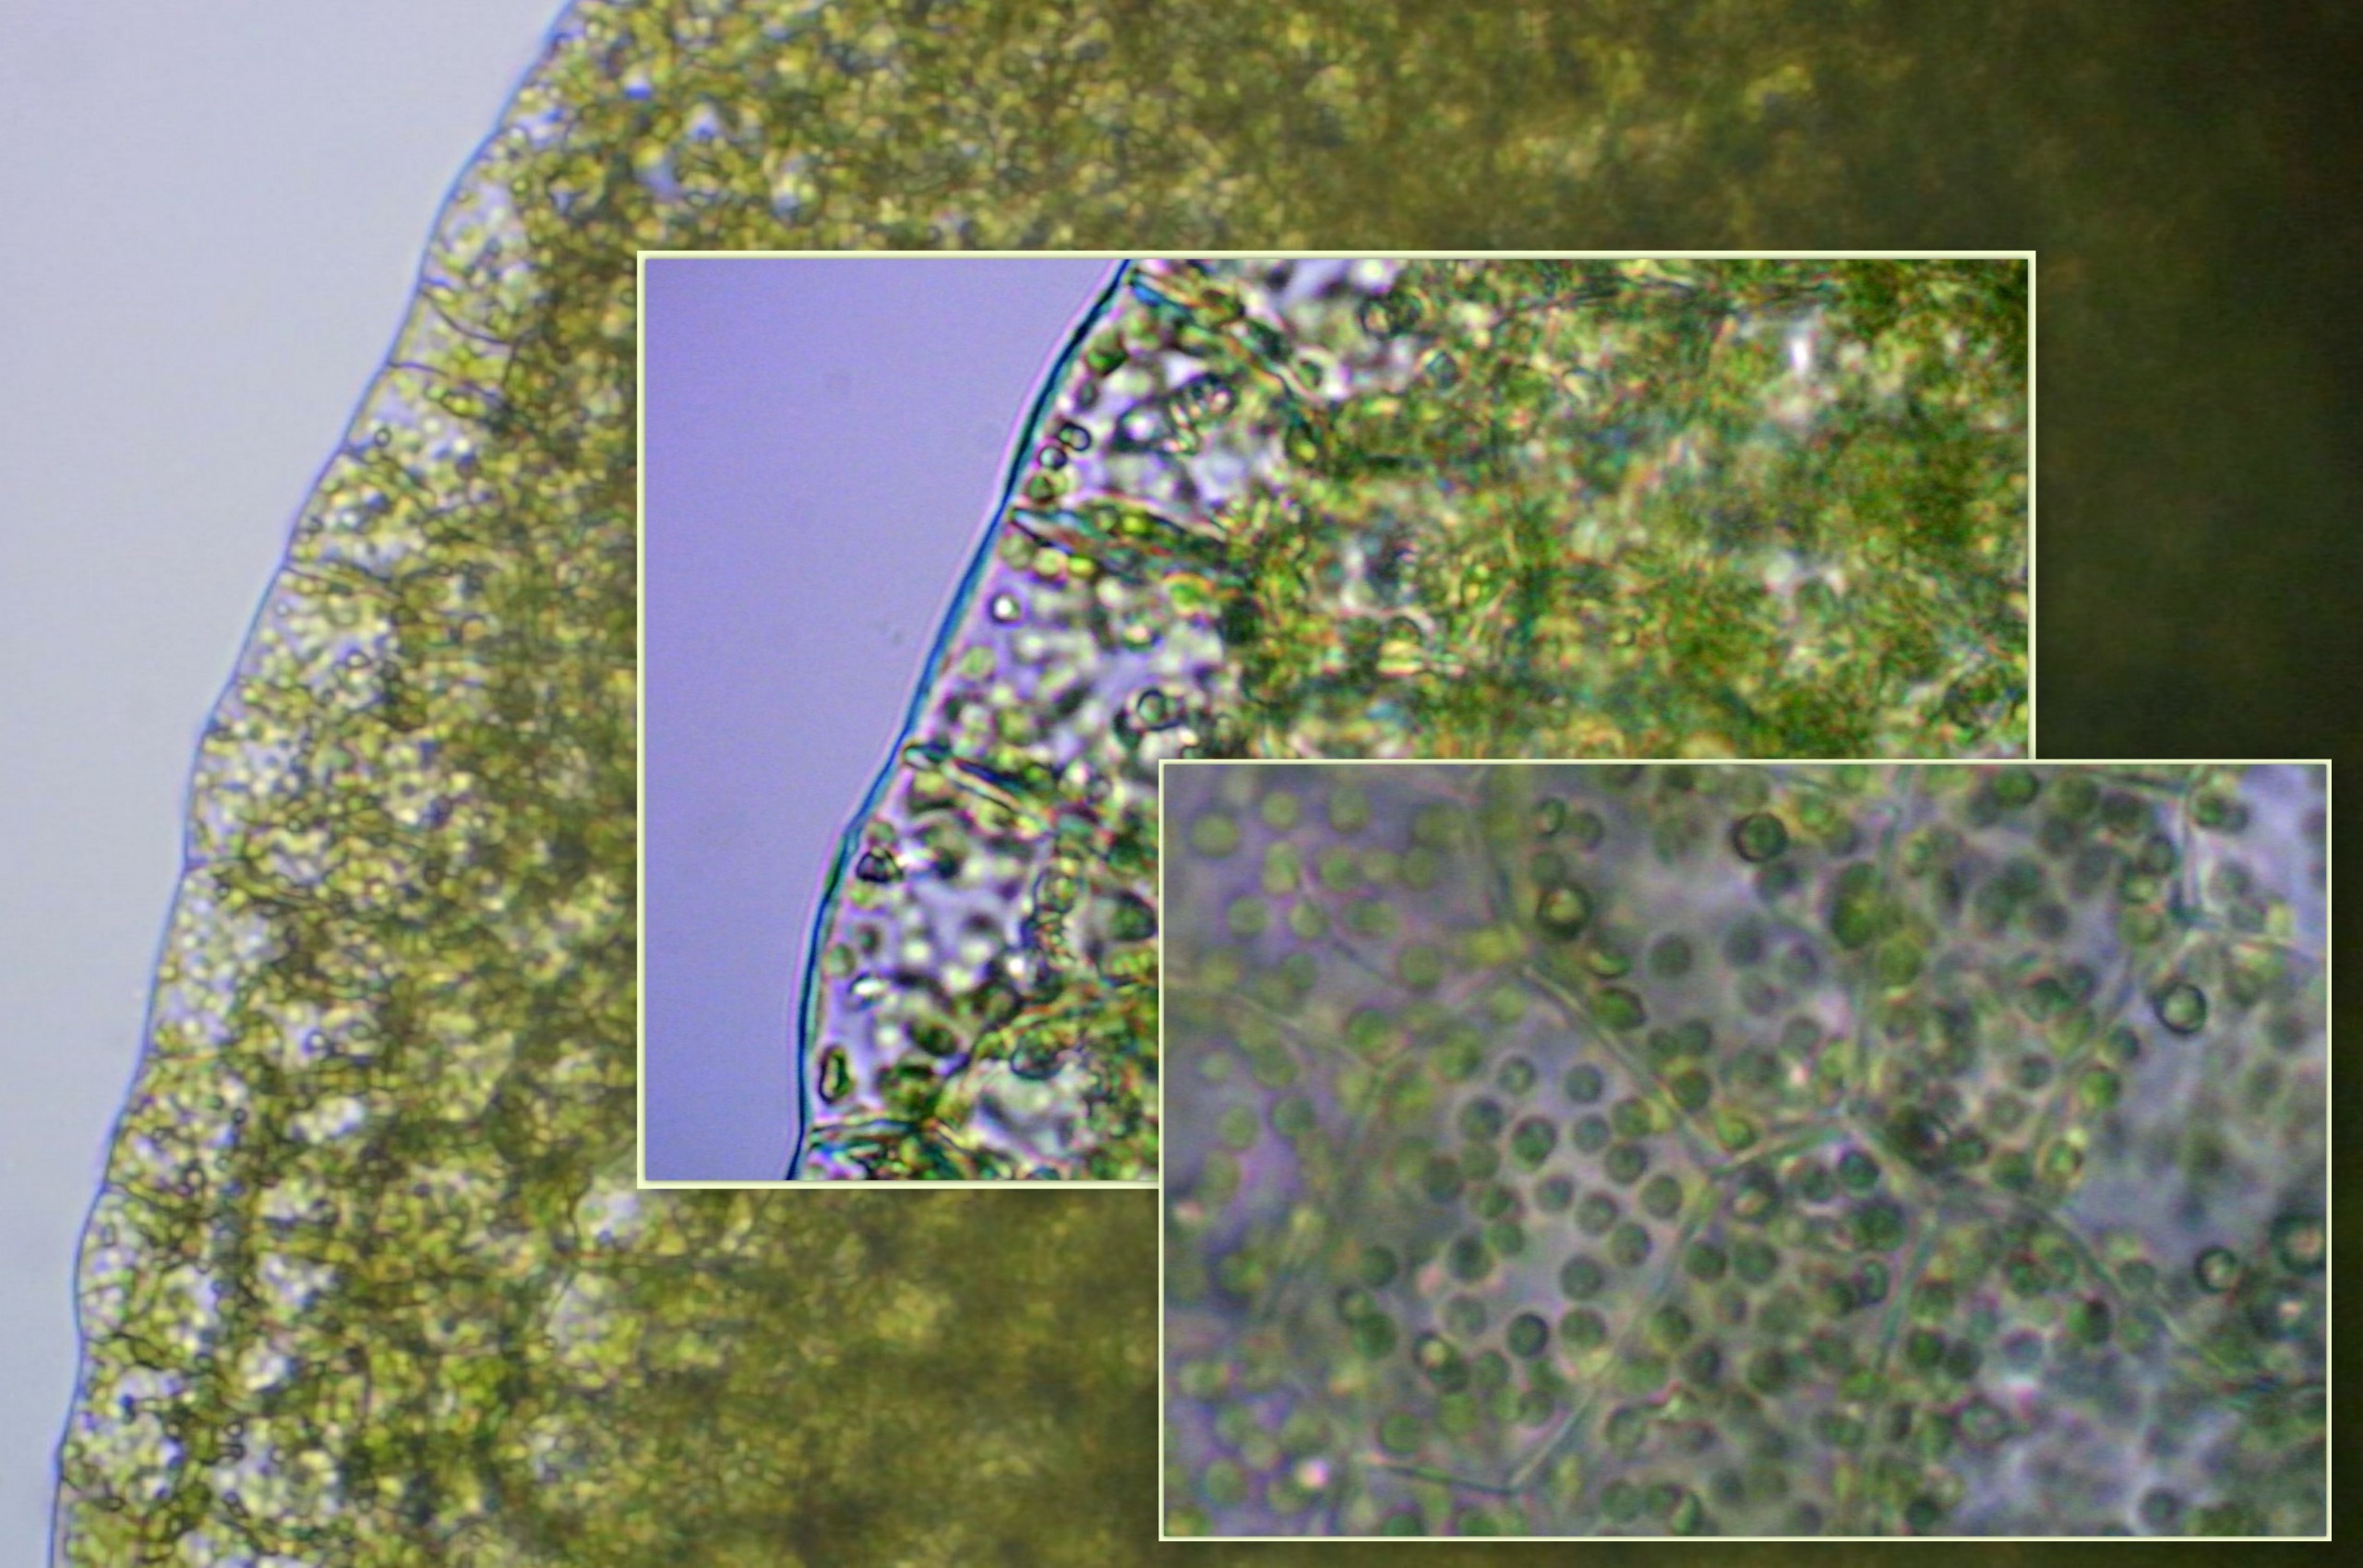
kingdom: Plantae
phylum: Marchantiophyta
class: Jungermanniopsida
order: Metzgeriales
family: Aneuraceae
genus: Aneura
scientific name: Aneura pinguis
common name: Tyk nerveløs
